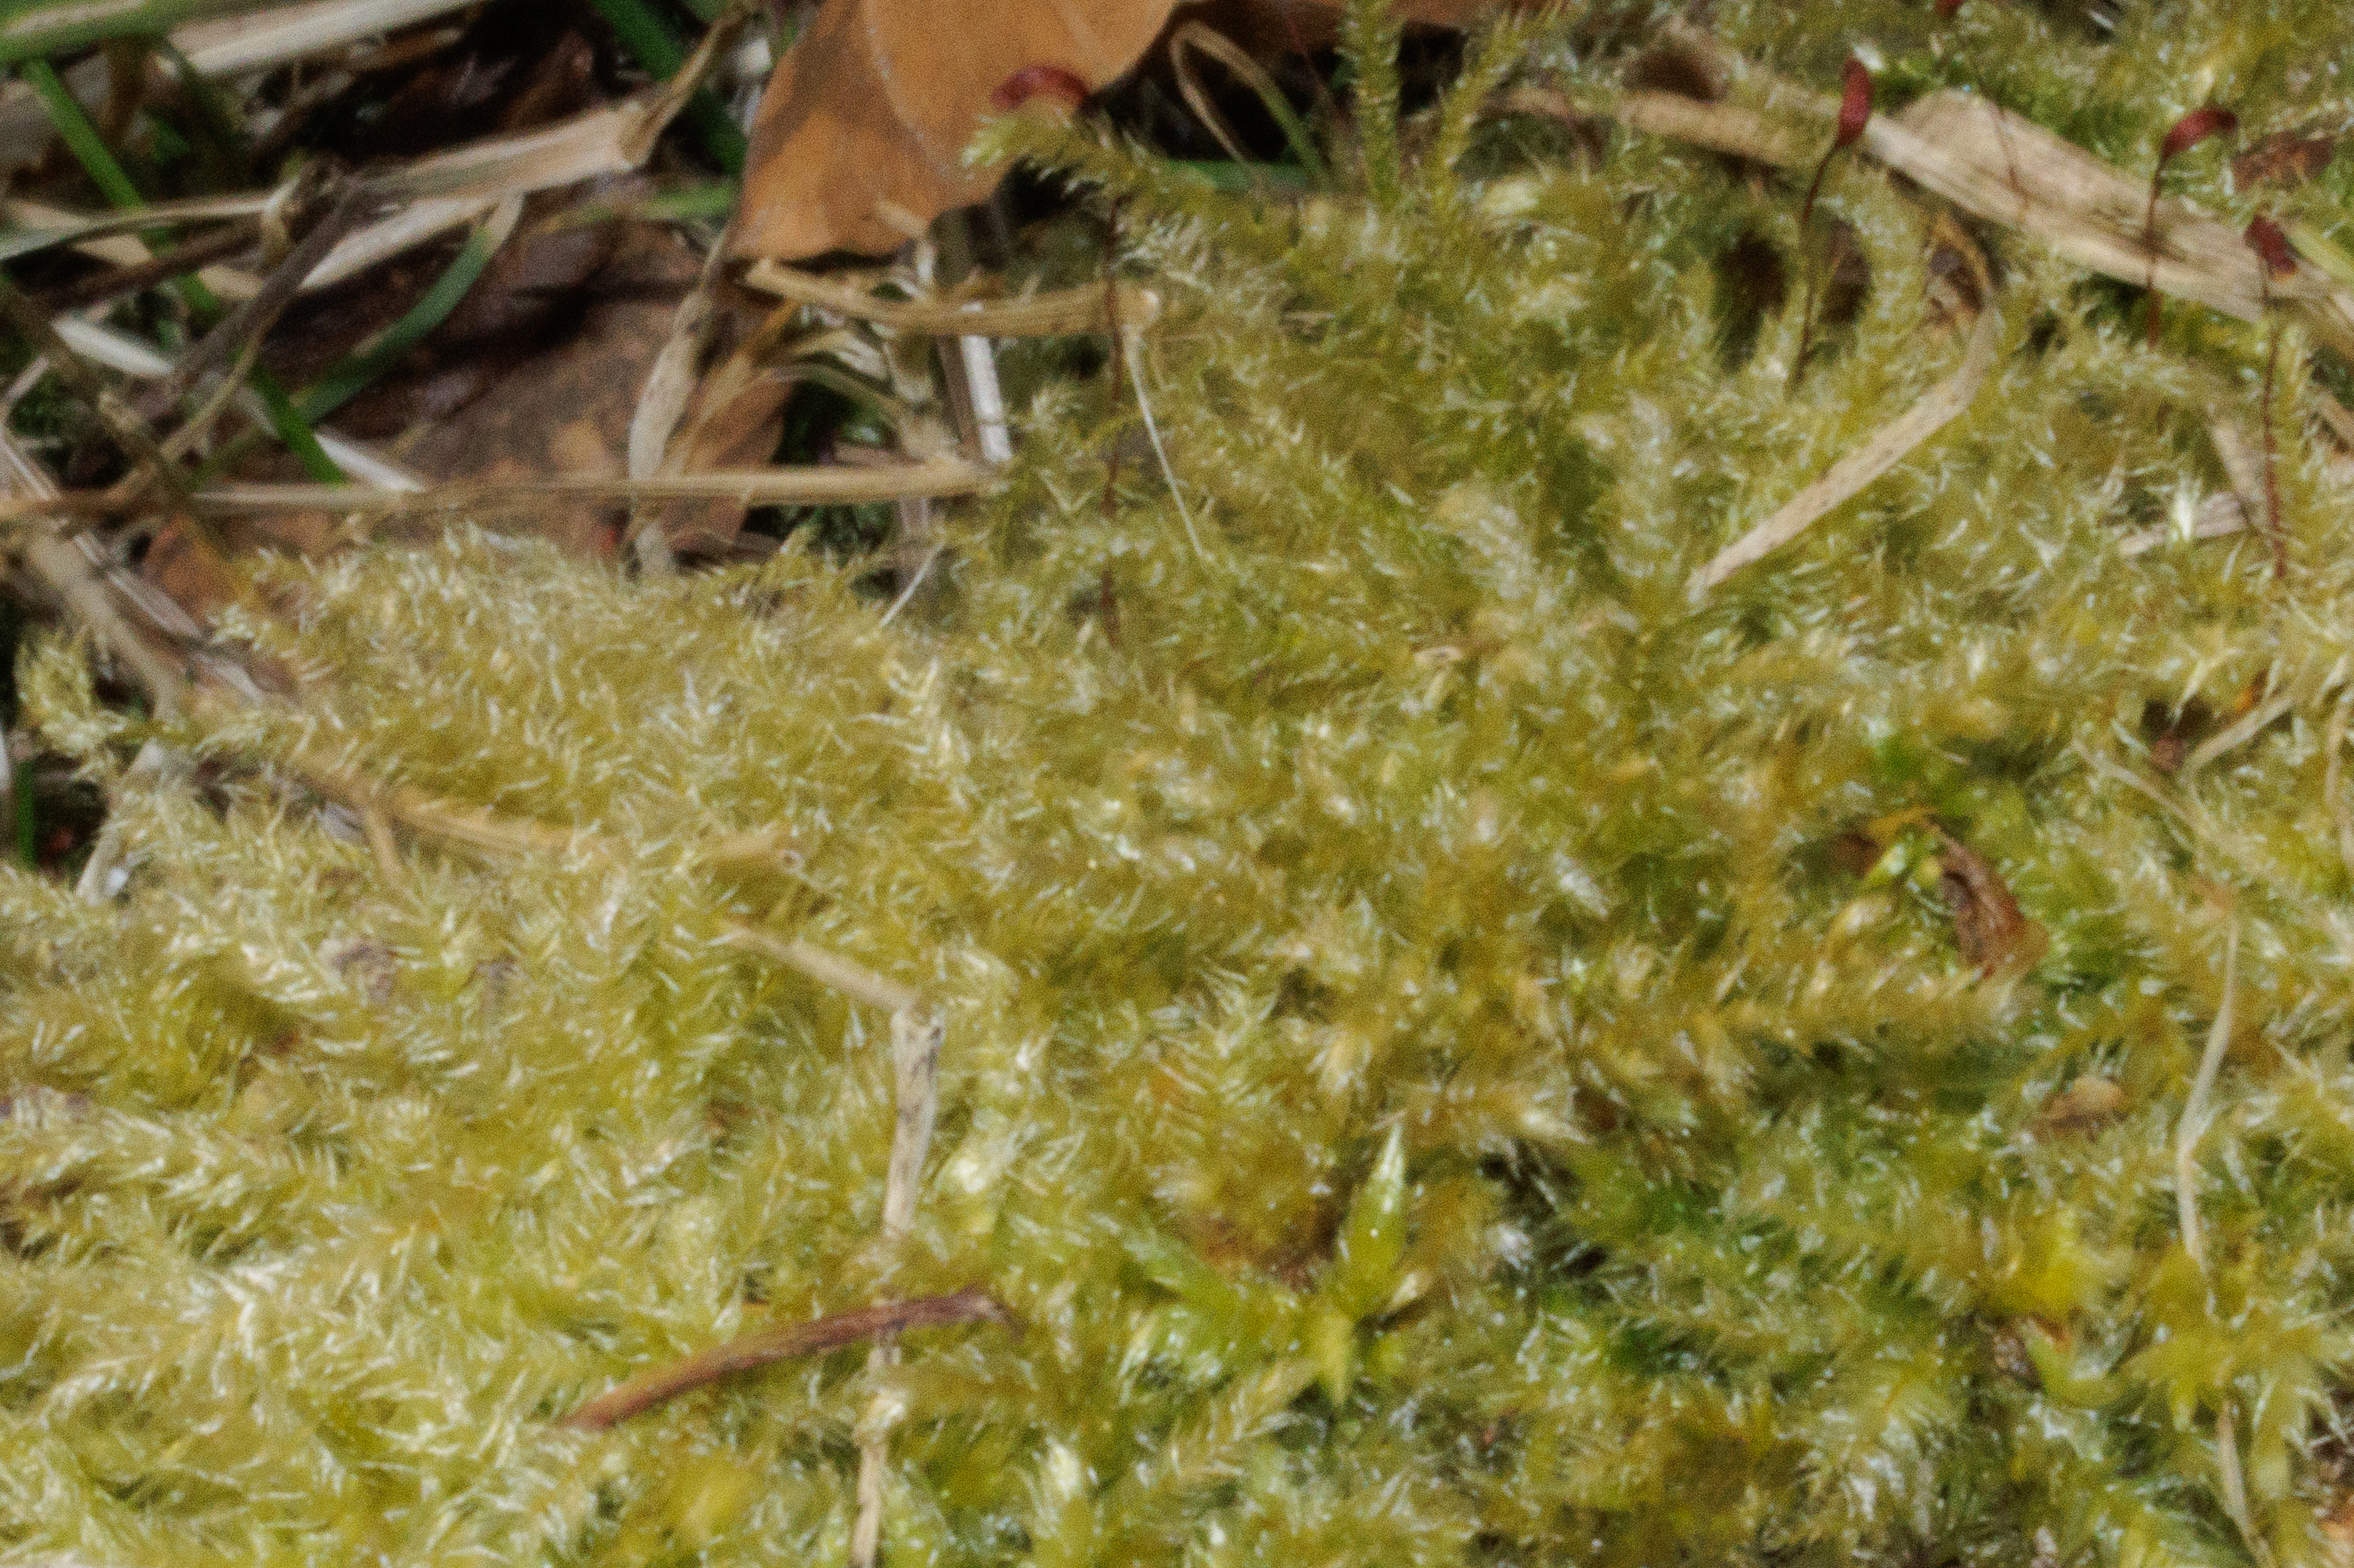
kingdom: Plantae
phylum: Bryophyta
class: Bryopsida
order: Hypnales
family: Hypnaceae
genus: Hypnum
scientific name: Hypnum cupressiforme
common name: Almindelig cypresmos
